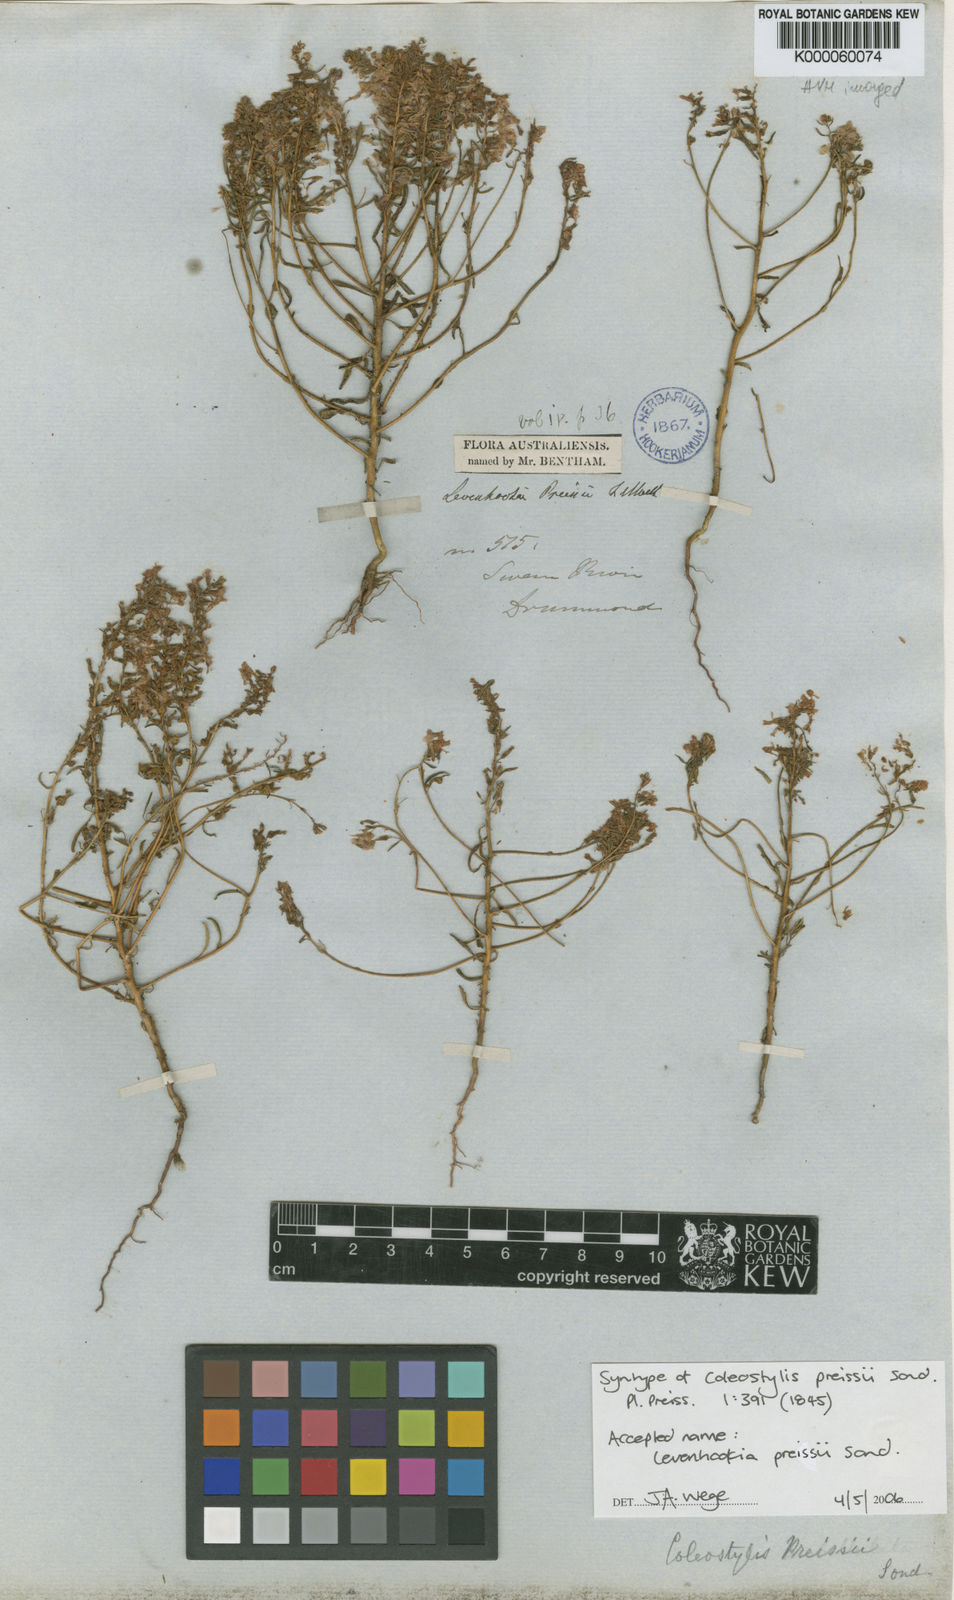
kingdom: Plantae
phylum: Tracheophyta
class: Magnoliopsida
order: Asterales
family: Stylidiaceae
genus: Levenhookia
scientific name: Levenhookia preissii
